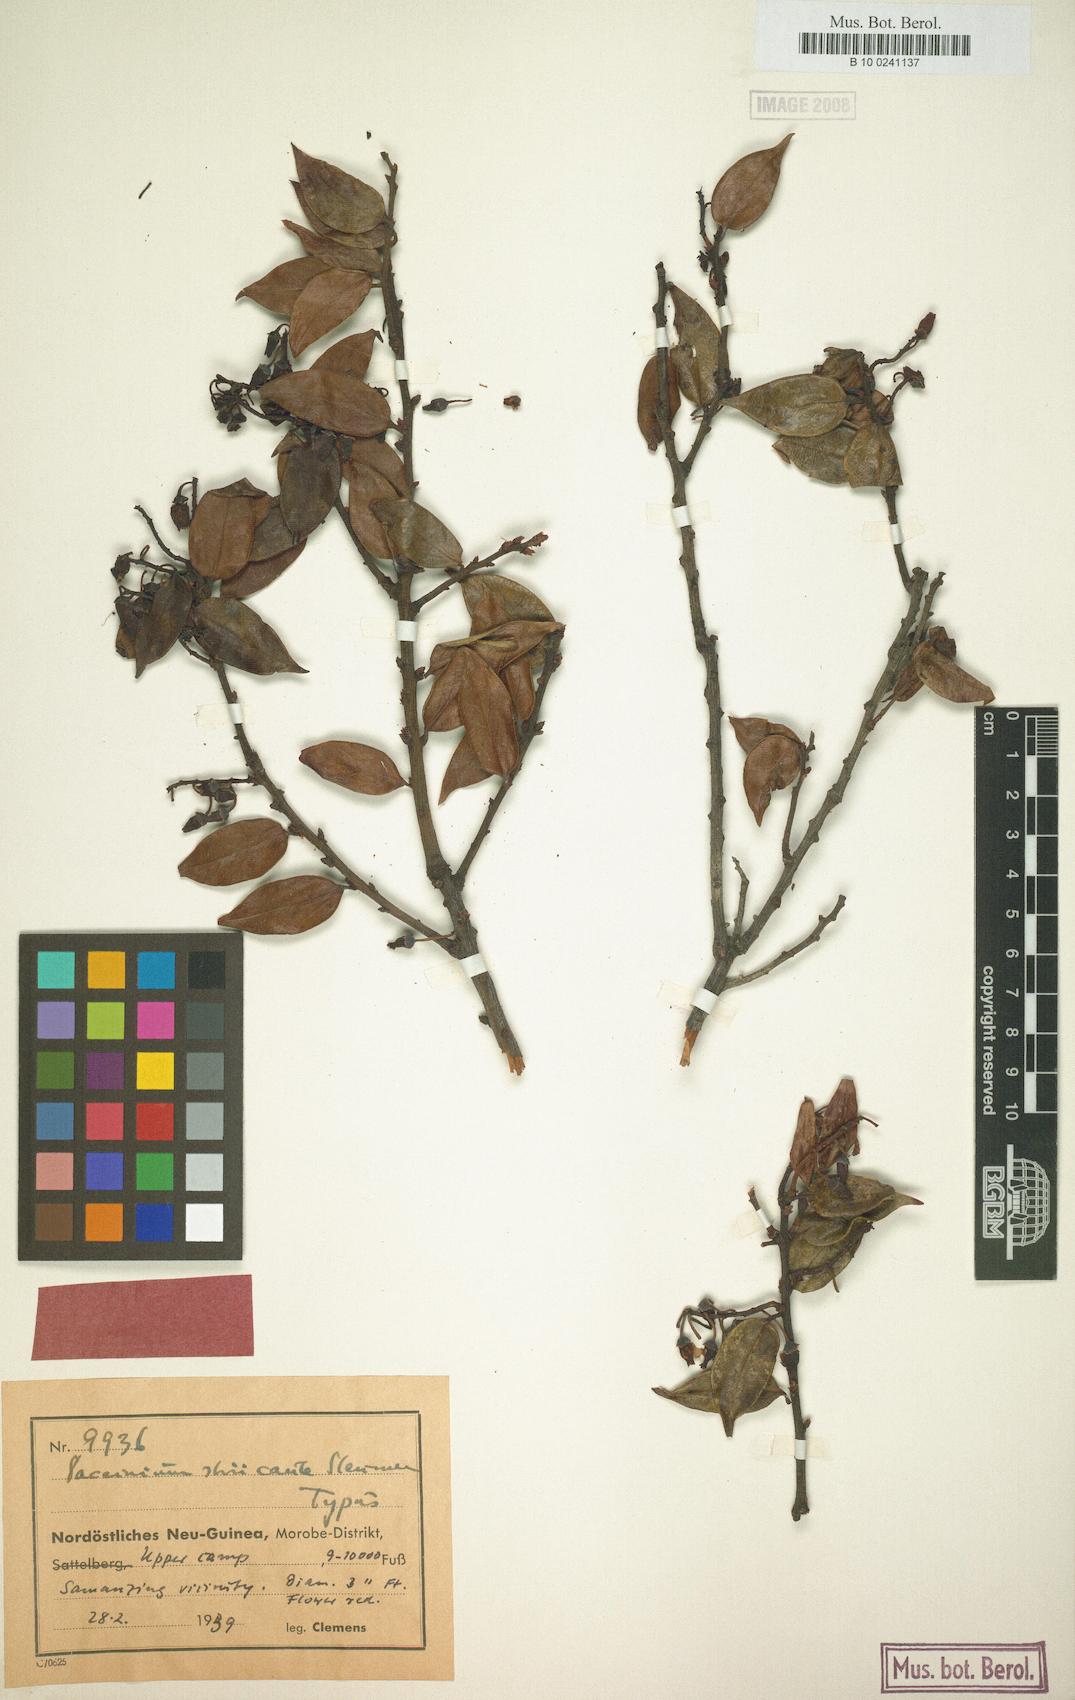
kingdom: Plantae
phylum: Tracheophyta
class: Magnoliopsida
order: Ericales
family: Ericaceae
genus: Vaccinium
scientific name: Vaccinium striicaule
